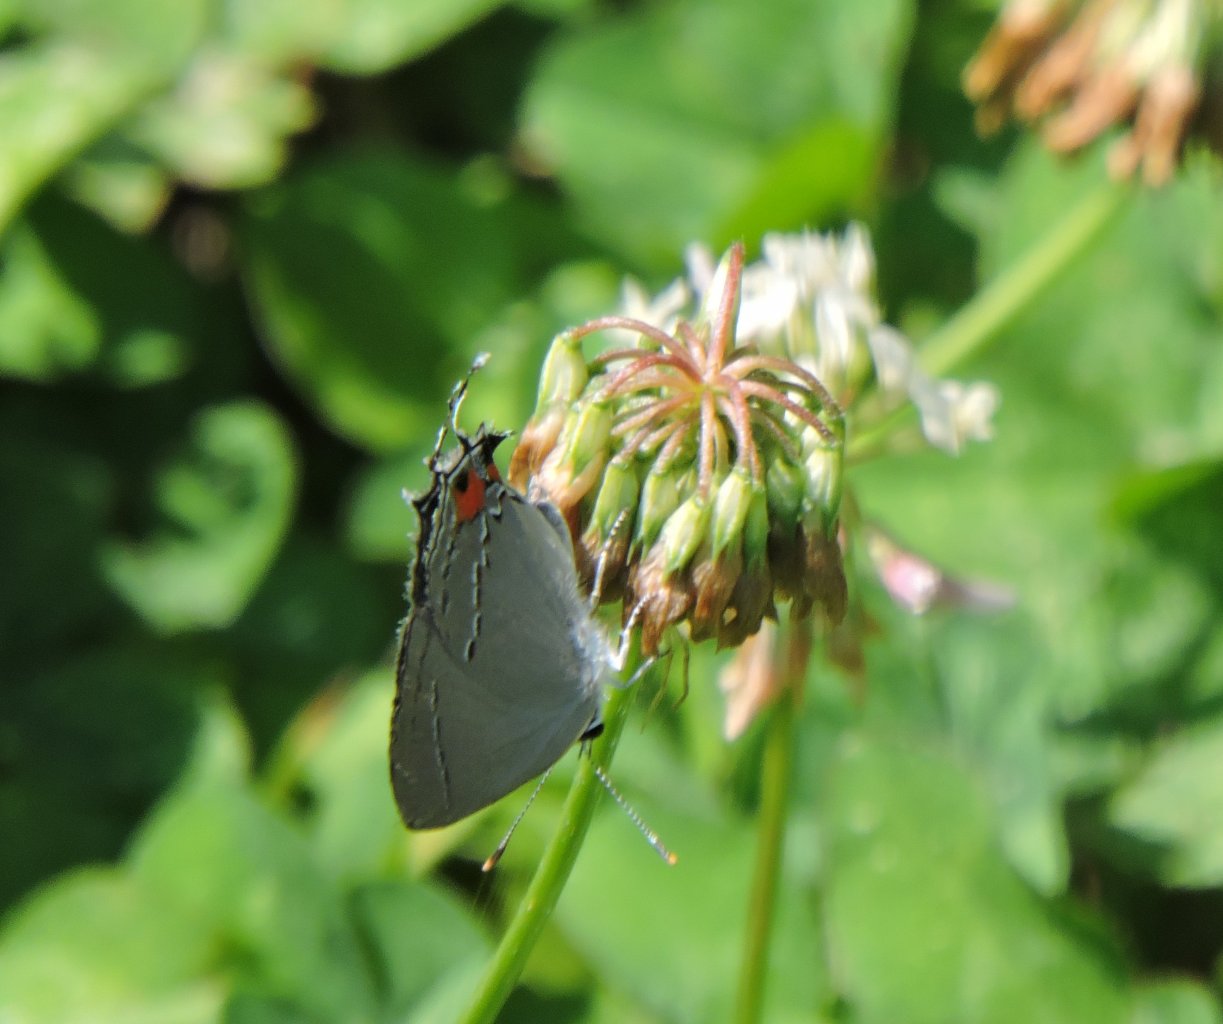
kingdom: Animalia
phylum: Arthropoda
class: Insecta
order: Lepidoptera
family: Lycaenidae
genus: Strymon
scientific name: Strymon melinus
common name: Gray Hairstreak
